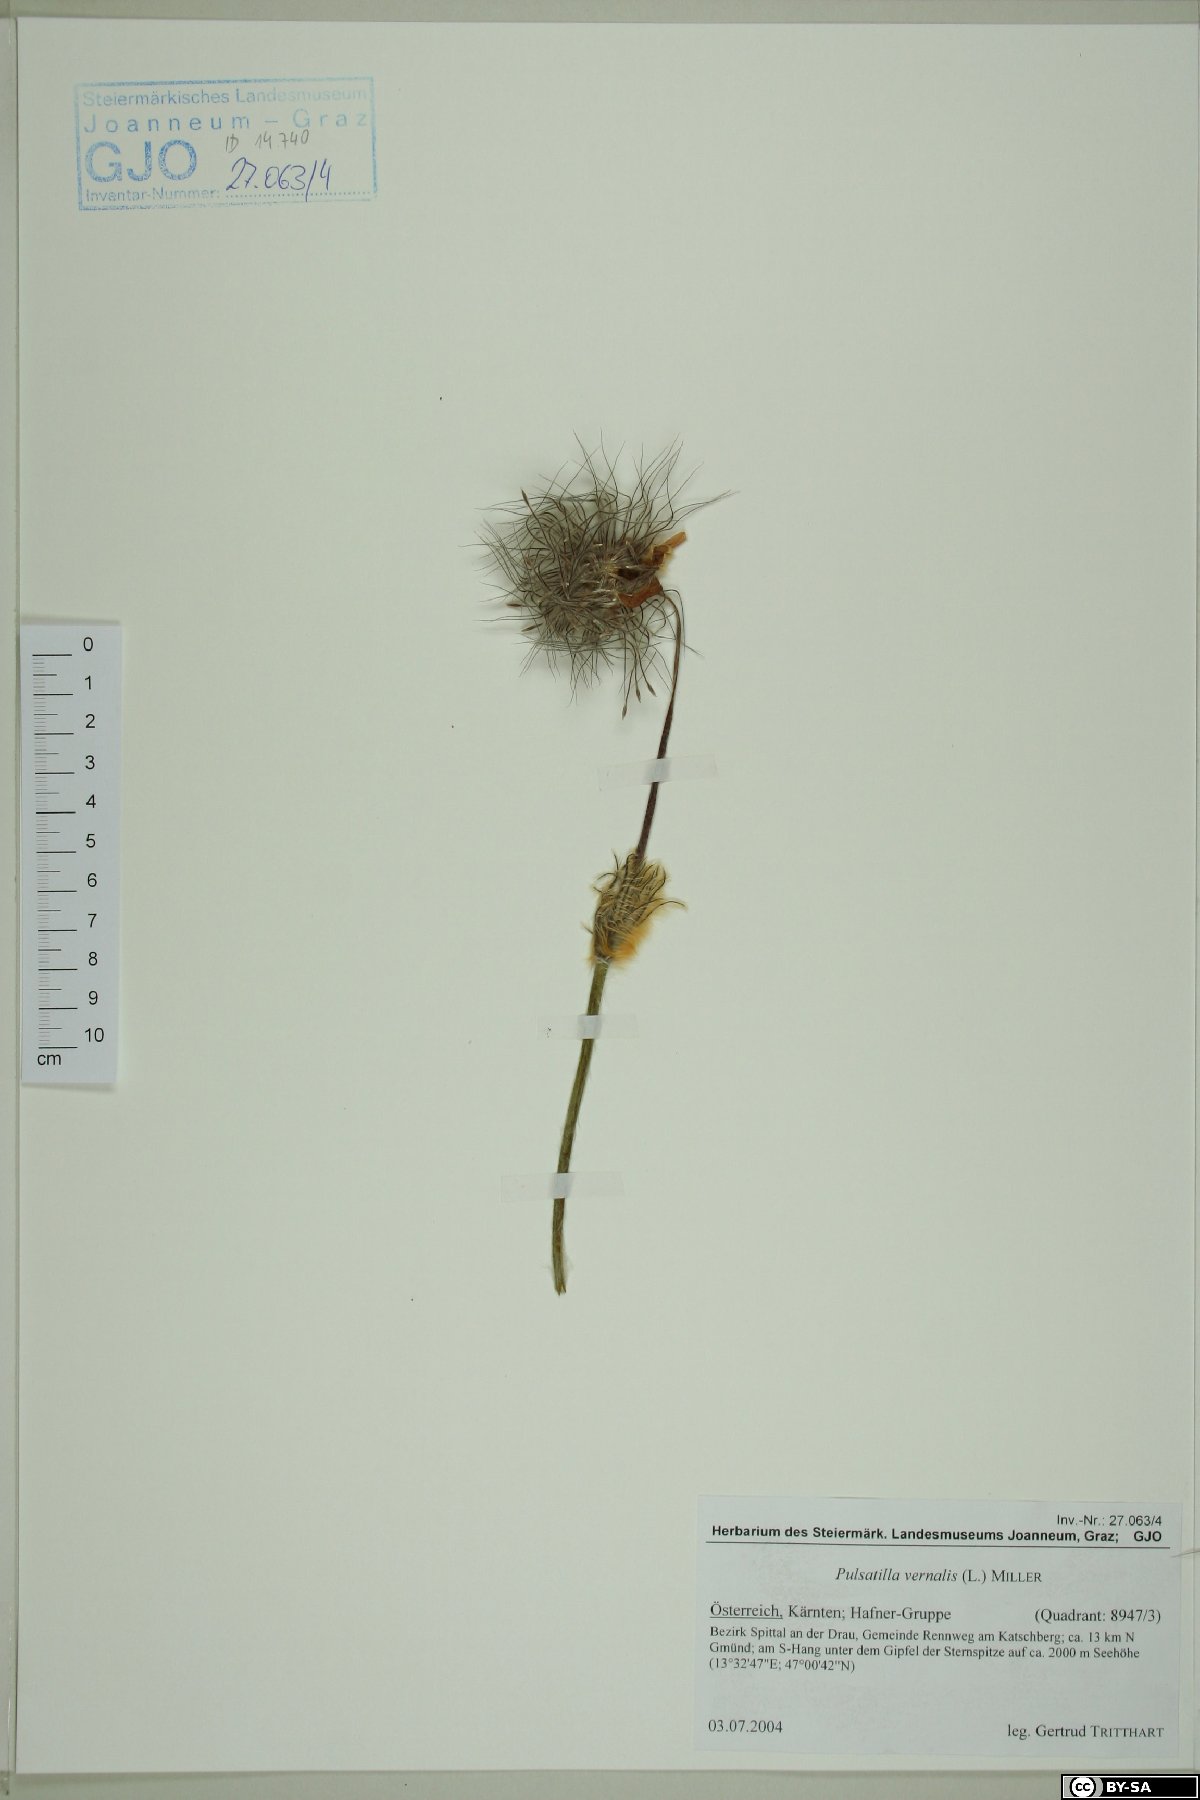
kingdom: Plantae
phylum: Tracheophyta
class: Magnoliopsida
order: Ranunculales
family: Ranunculaceae
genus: Pulsatilla
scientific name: Pulsatilla vernalis
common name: Spring pasque flower
